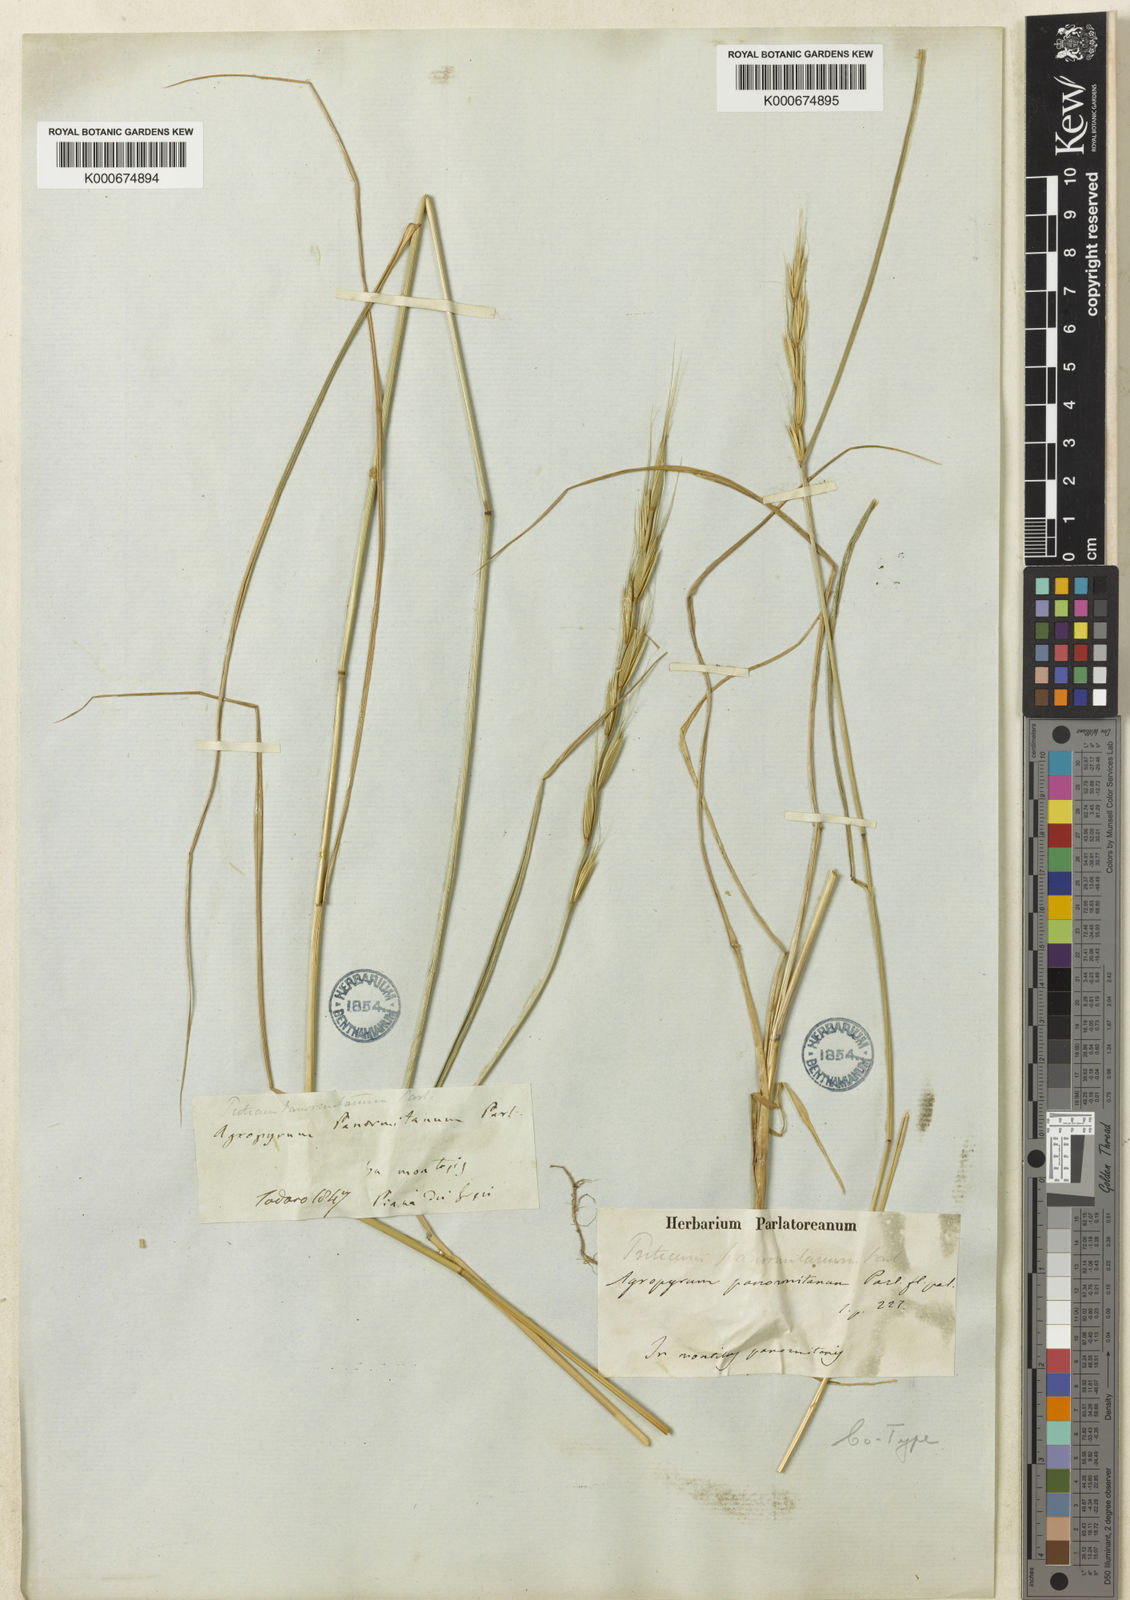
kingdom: Plantae
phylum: Tracheophyta
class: Liliopsida
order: Poales
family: Poaceae
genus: Elymus
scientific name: Elymus panormitanus
